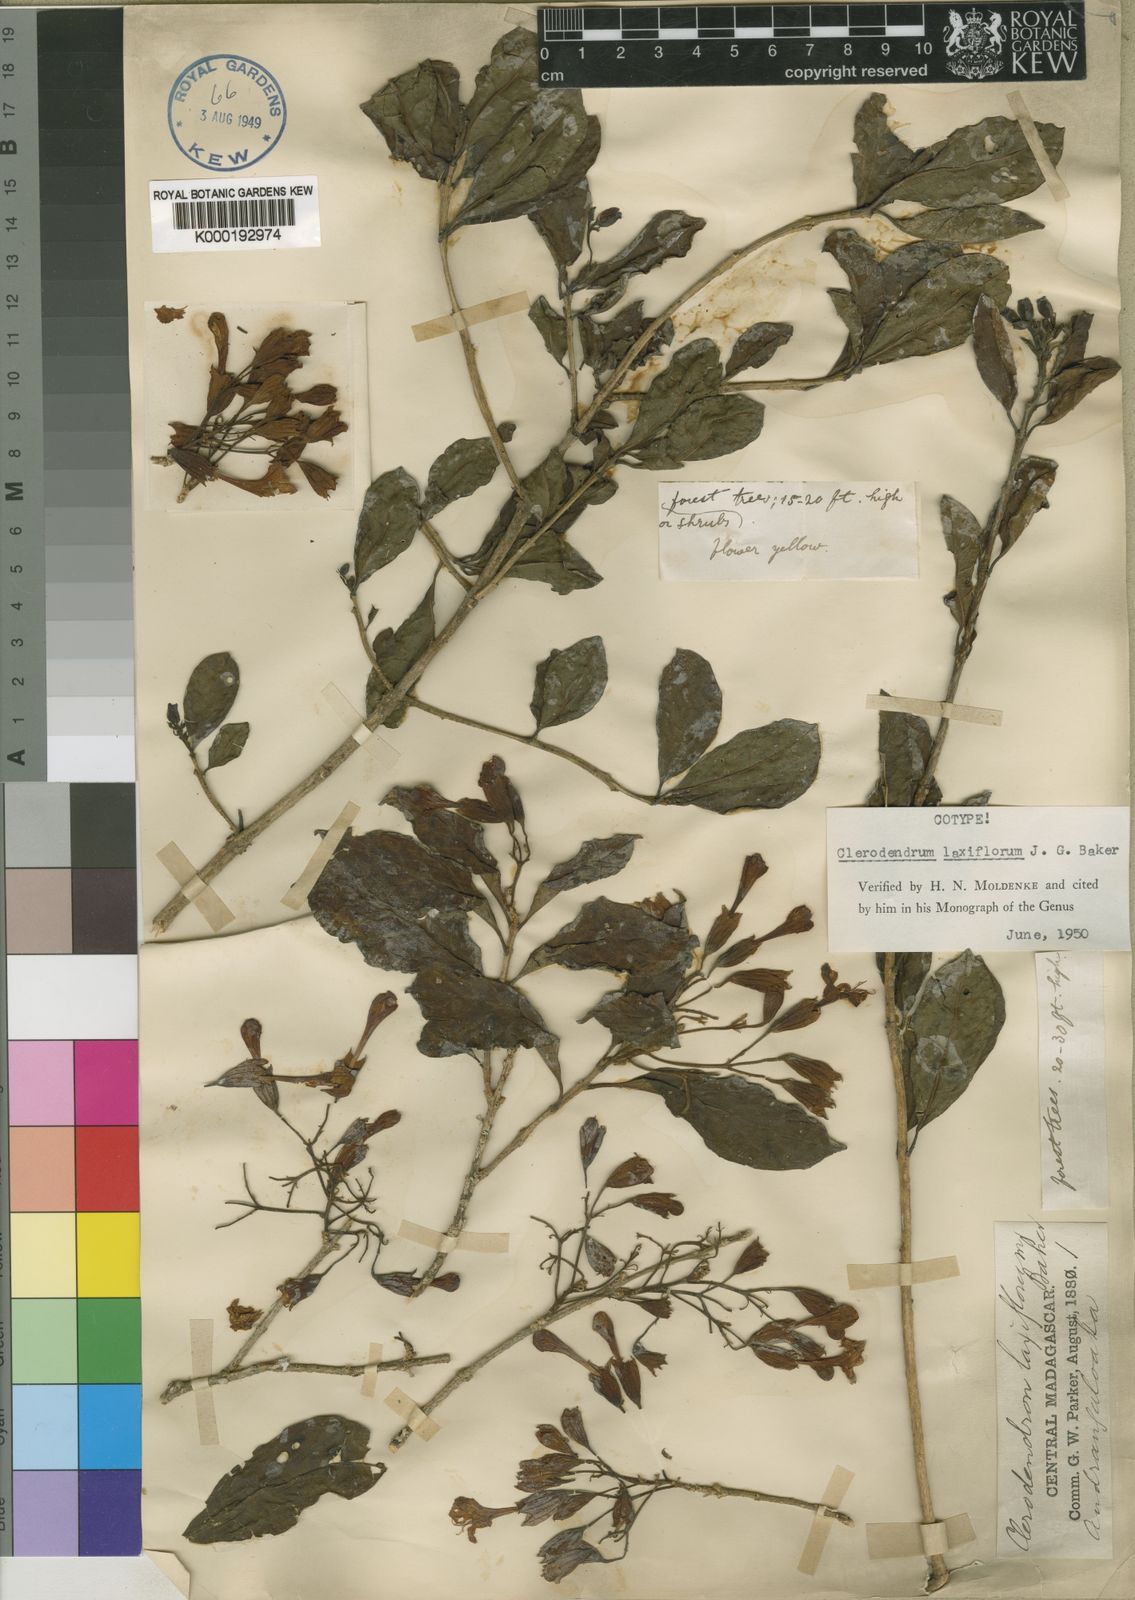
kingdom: Plantae
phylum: Tracheophyta
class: Magnoliopsida
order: Lamiales
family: Lamiaceae
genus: Clerodendrum
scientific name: Clerodendrum
